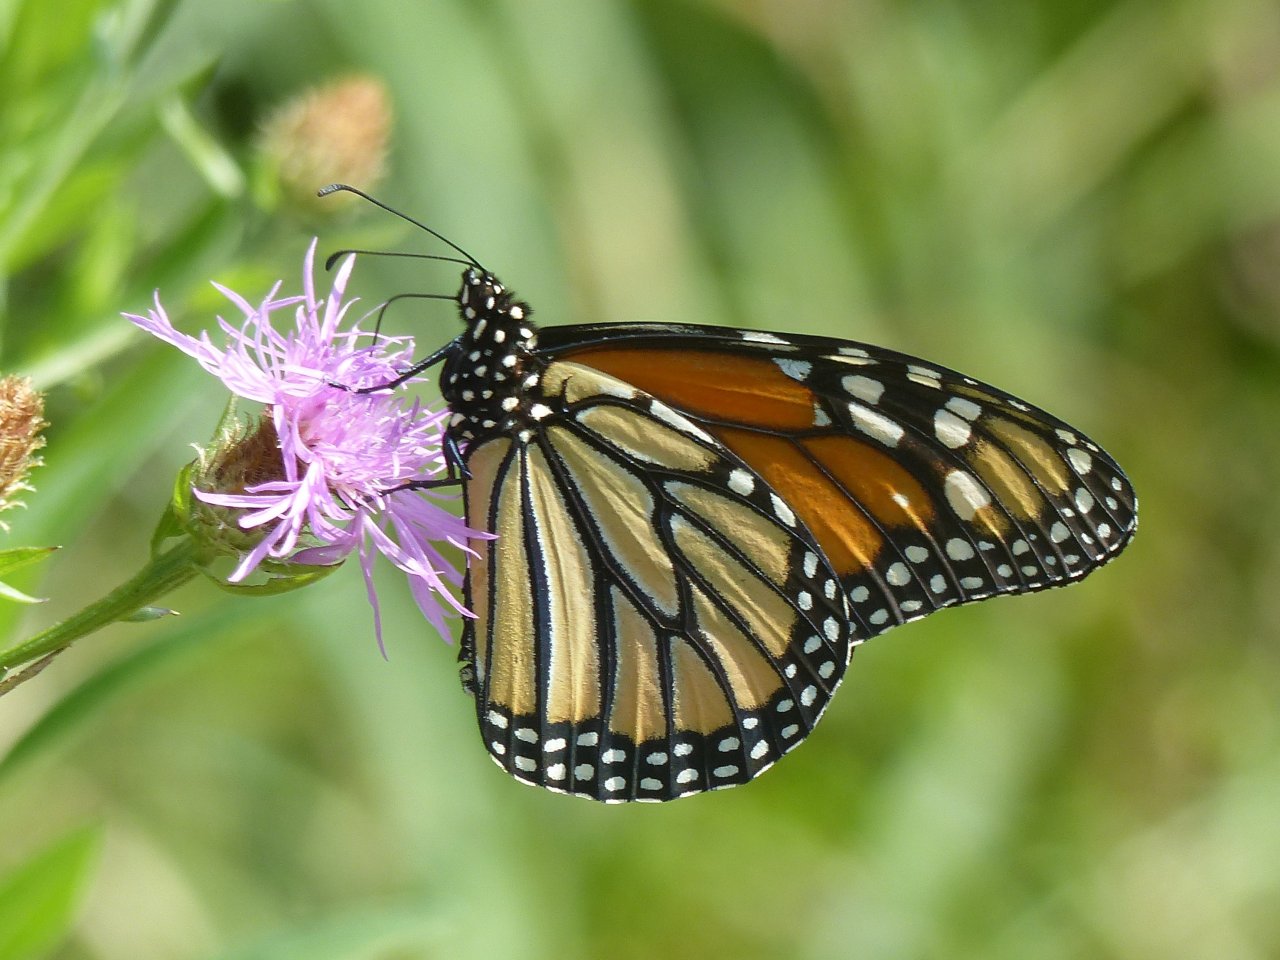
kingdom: Animalia
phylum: Arthropoda
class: Insecta
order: Lepidoptera
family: Nymphalidae
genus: Danaus
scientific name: Danaus plexippus
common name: Monarch
